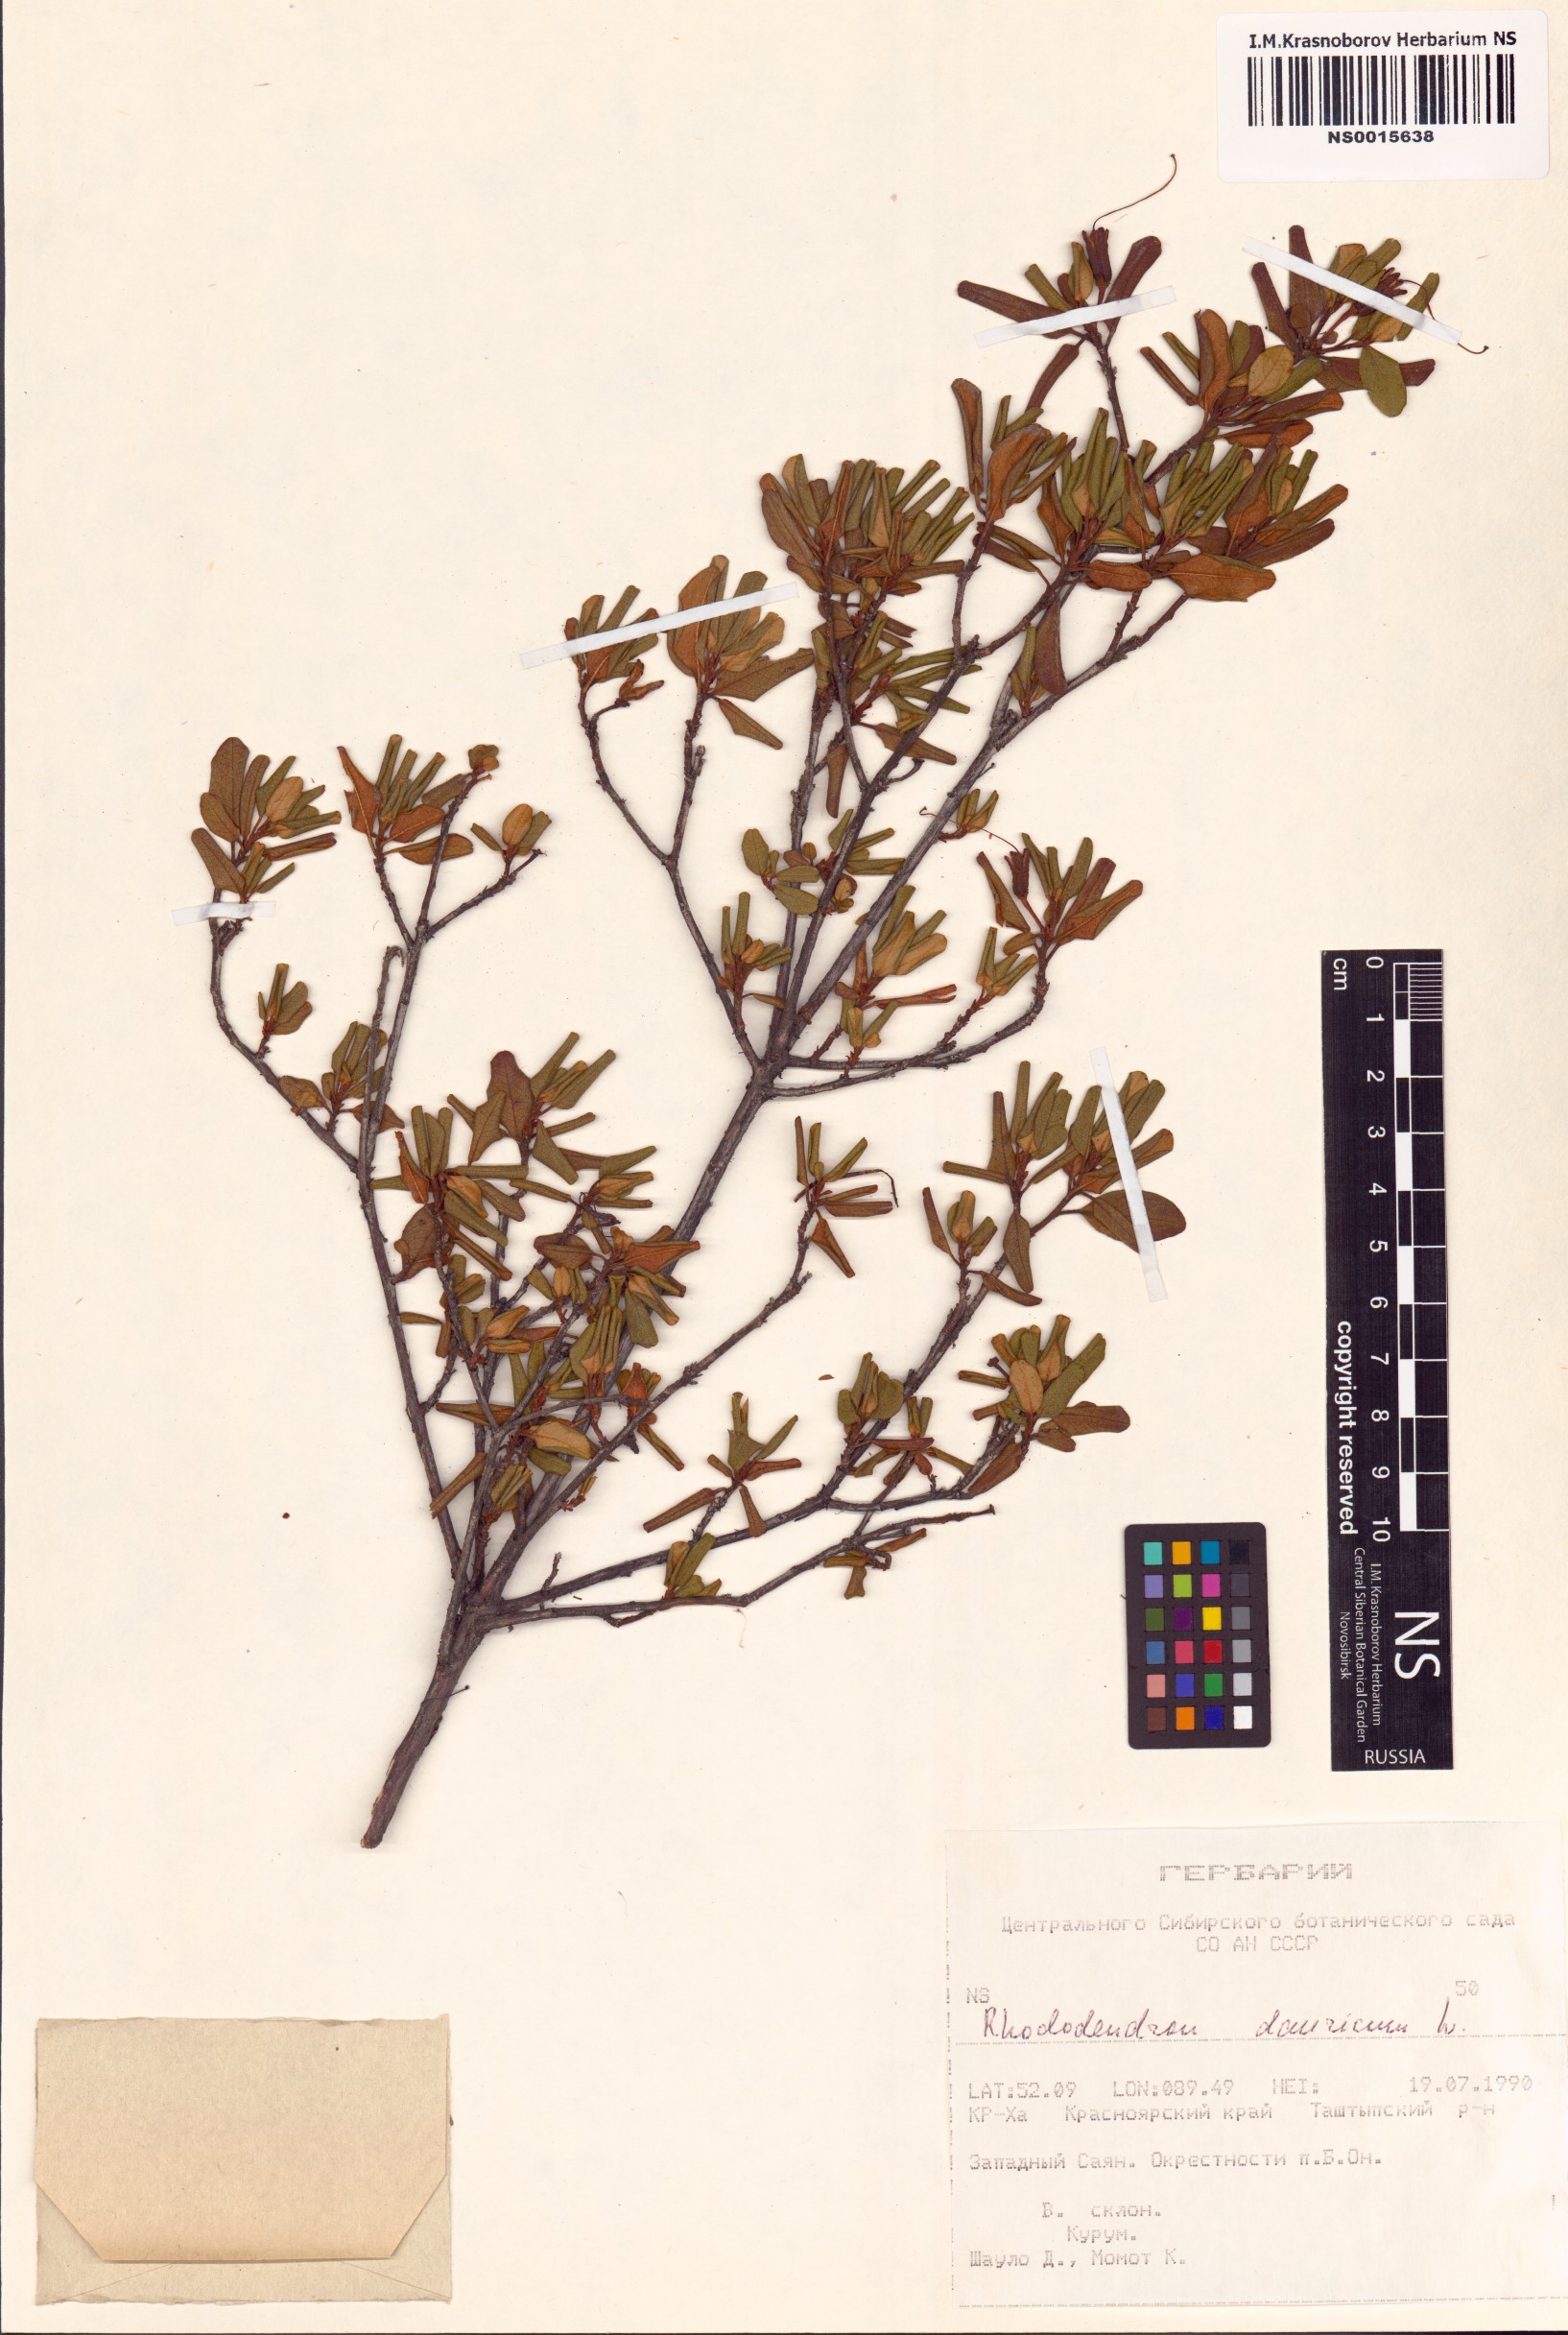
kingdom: Plantae
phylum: Tracheophyta
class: Magnoliopsida
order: Ericales
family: Ericaceae
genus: Rhododendron
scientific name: Rhododendron dauricum
